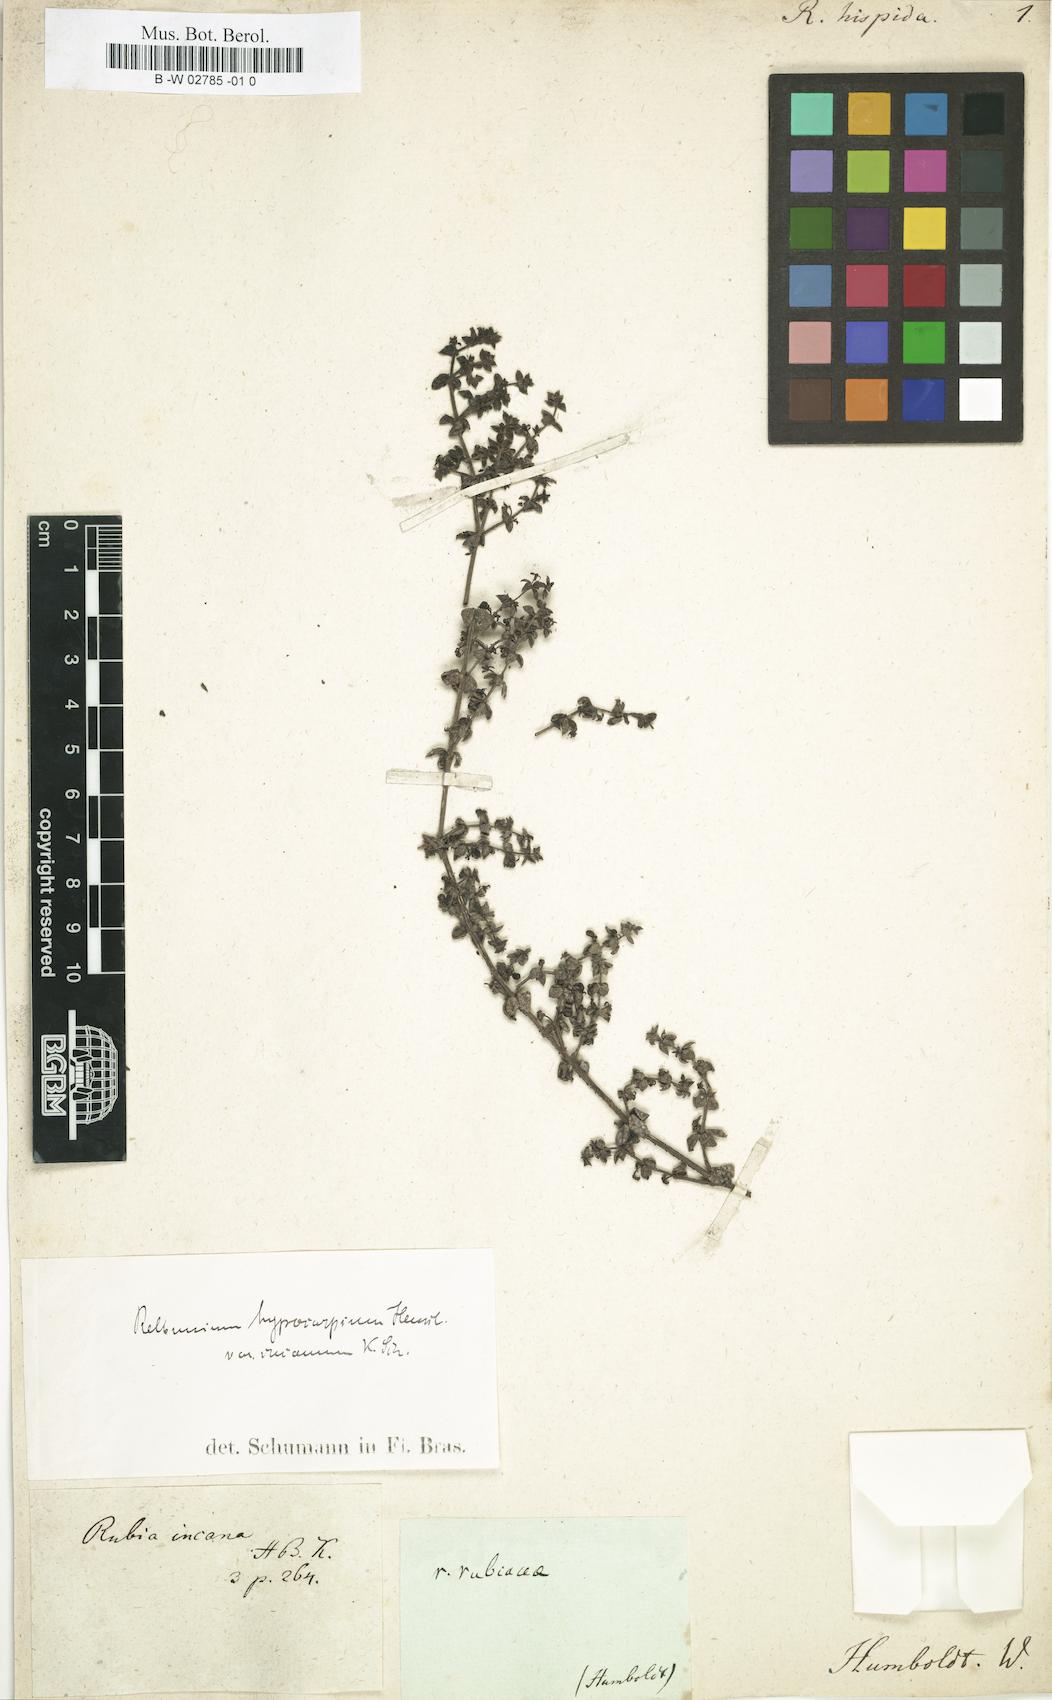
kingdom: Plantae
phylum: Tracheophyta
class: Magnoliopsida
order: Gentianales
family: Rubiaceae
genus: Galium
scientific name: Galium hypocarpium
